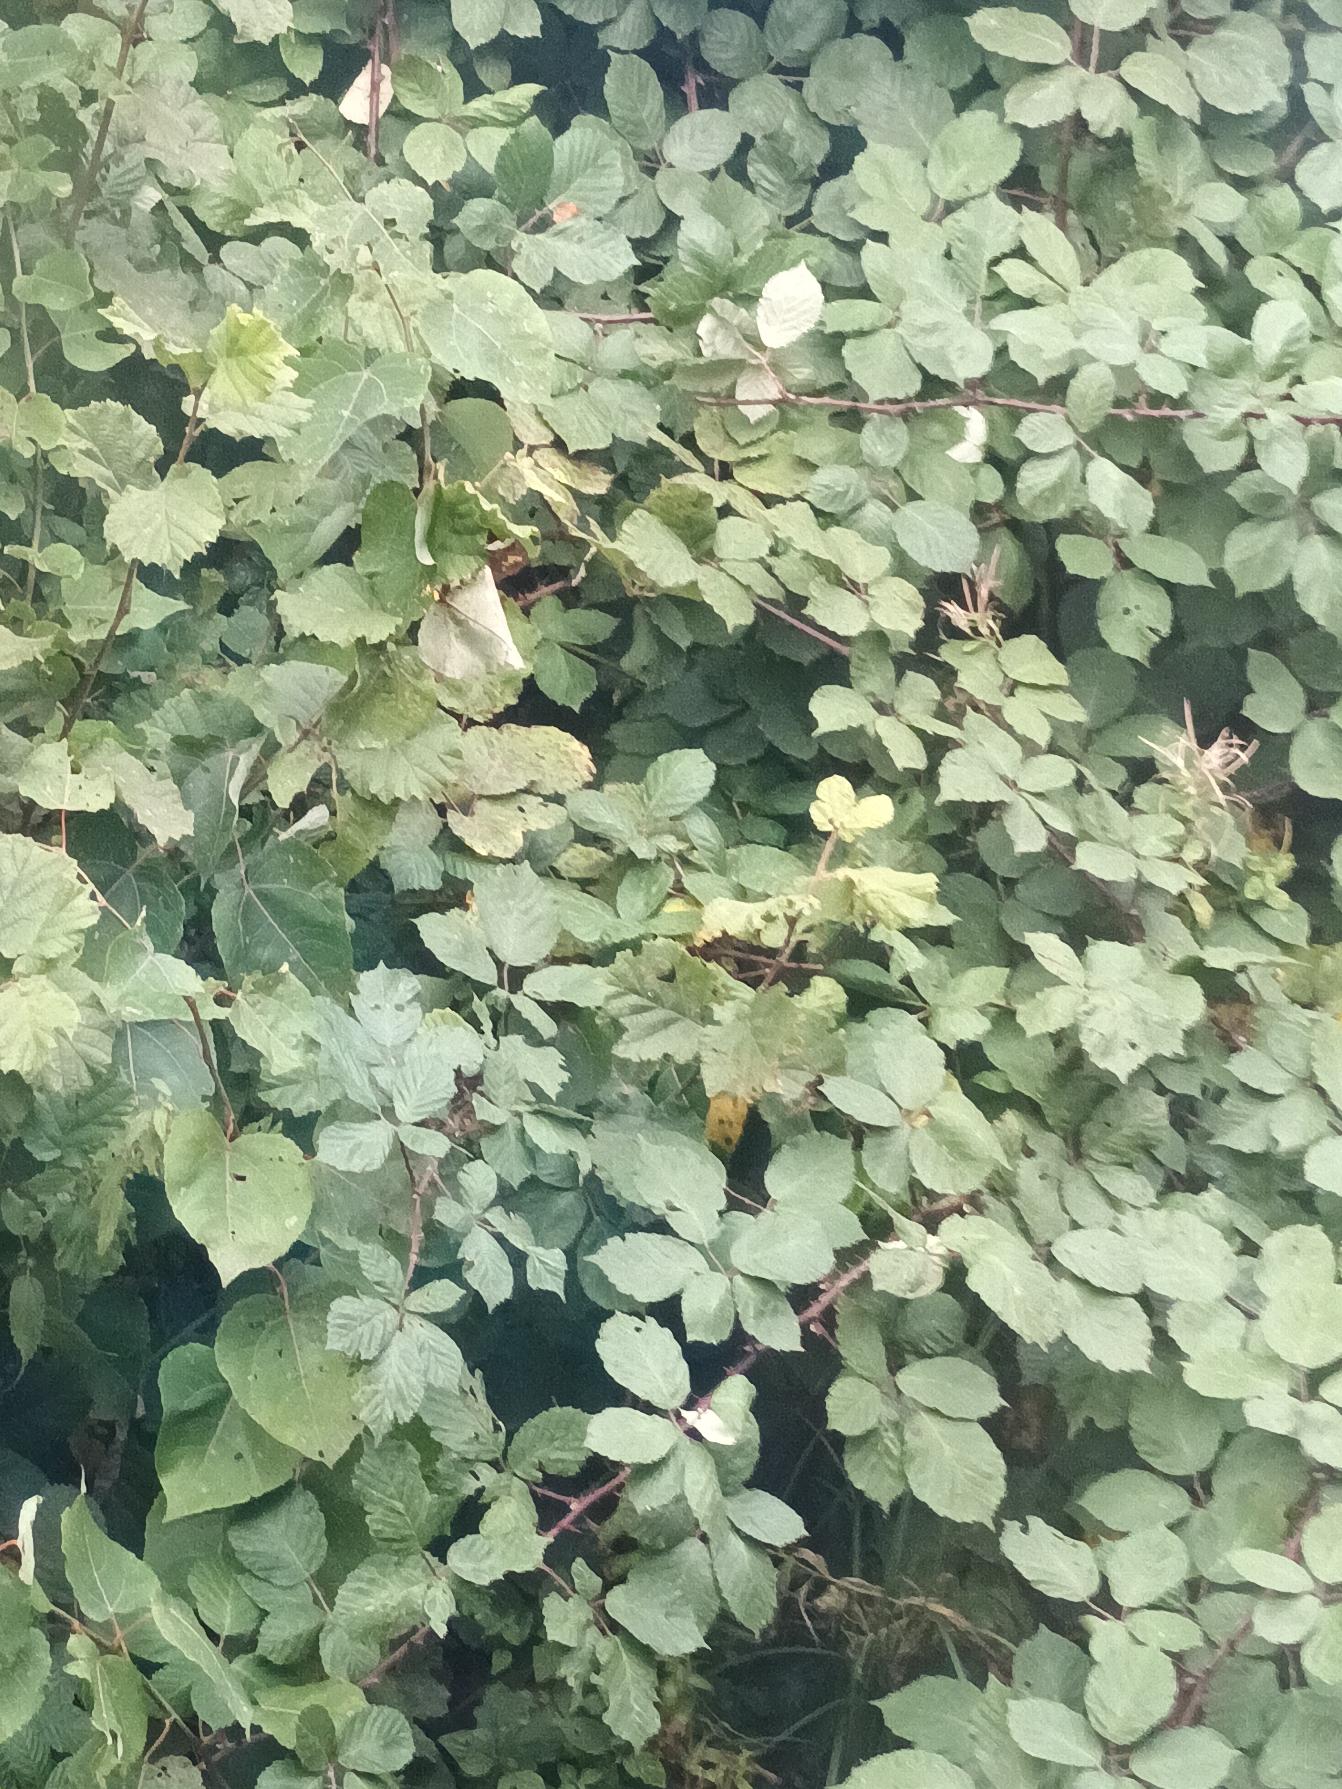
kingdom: Plantae
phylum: Tracheophyta
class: Magnoliopsida
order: Rosales
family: Rosaceae
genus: Rubus
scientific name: Rubus armeniacus
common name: Armensk brombær
